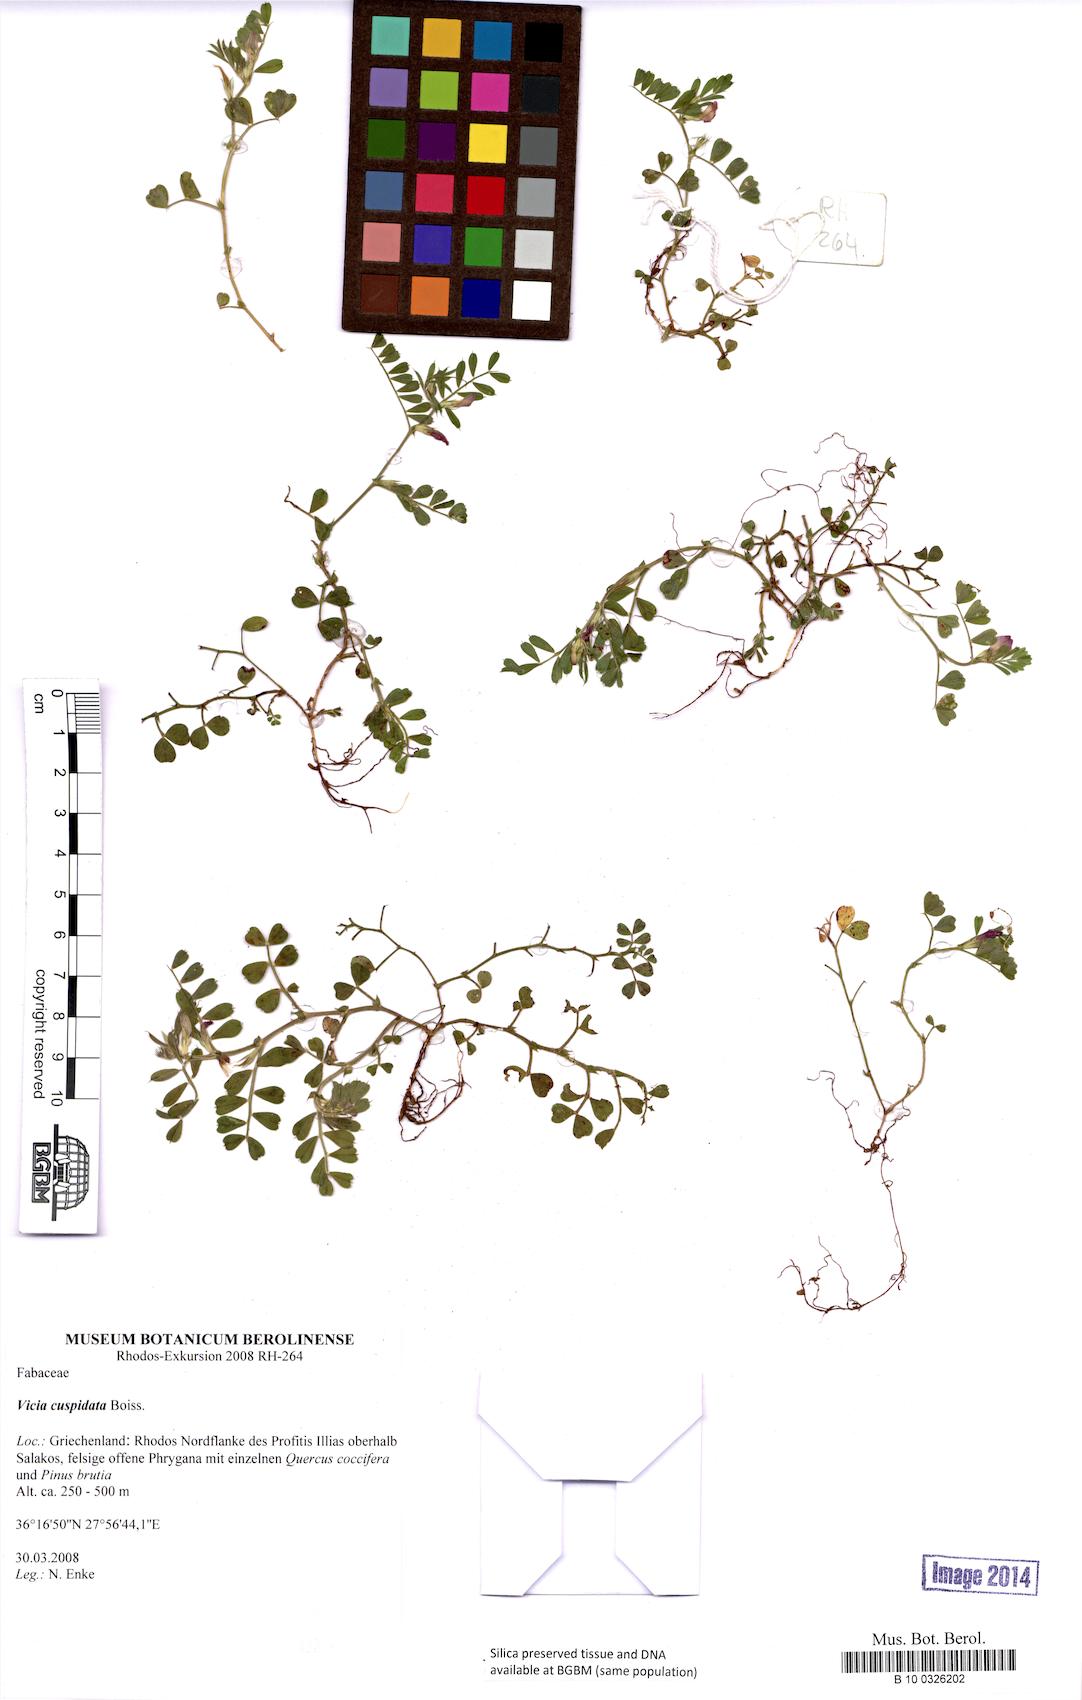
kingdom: Plantae
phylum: Tracheophyta
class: Magnoliopsida
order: Fabales
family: Fabaceae
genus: Vicia
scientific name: Vicia cuspidata
